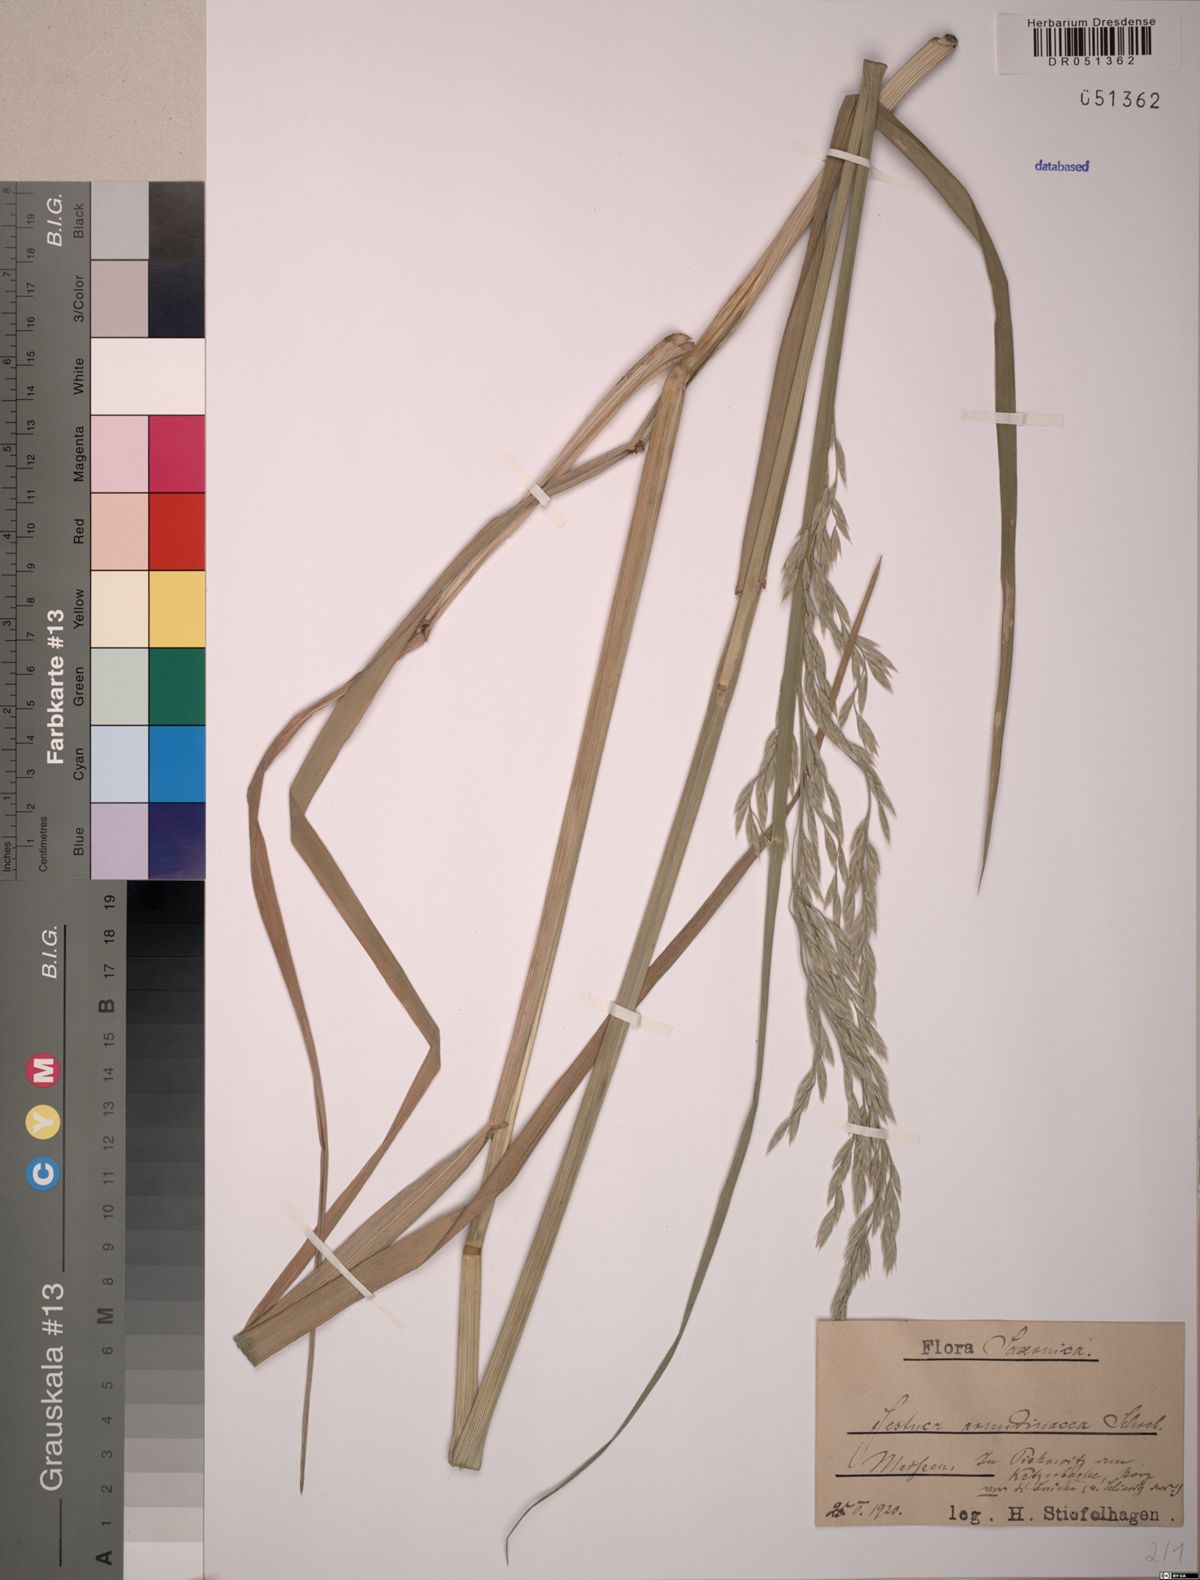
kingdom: Plantae
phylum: Tracheophyta
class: Liliopsida
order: Poales
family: Poaceae
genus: Lolium
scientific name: Lolium arundinaceum
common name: Reed fescue
